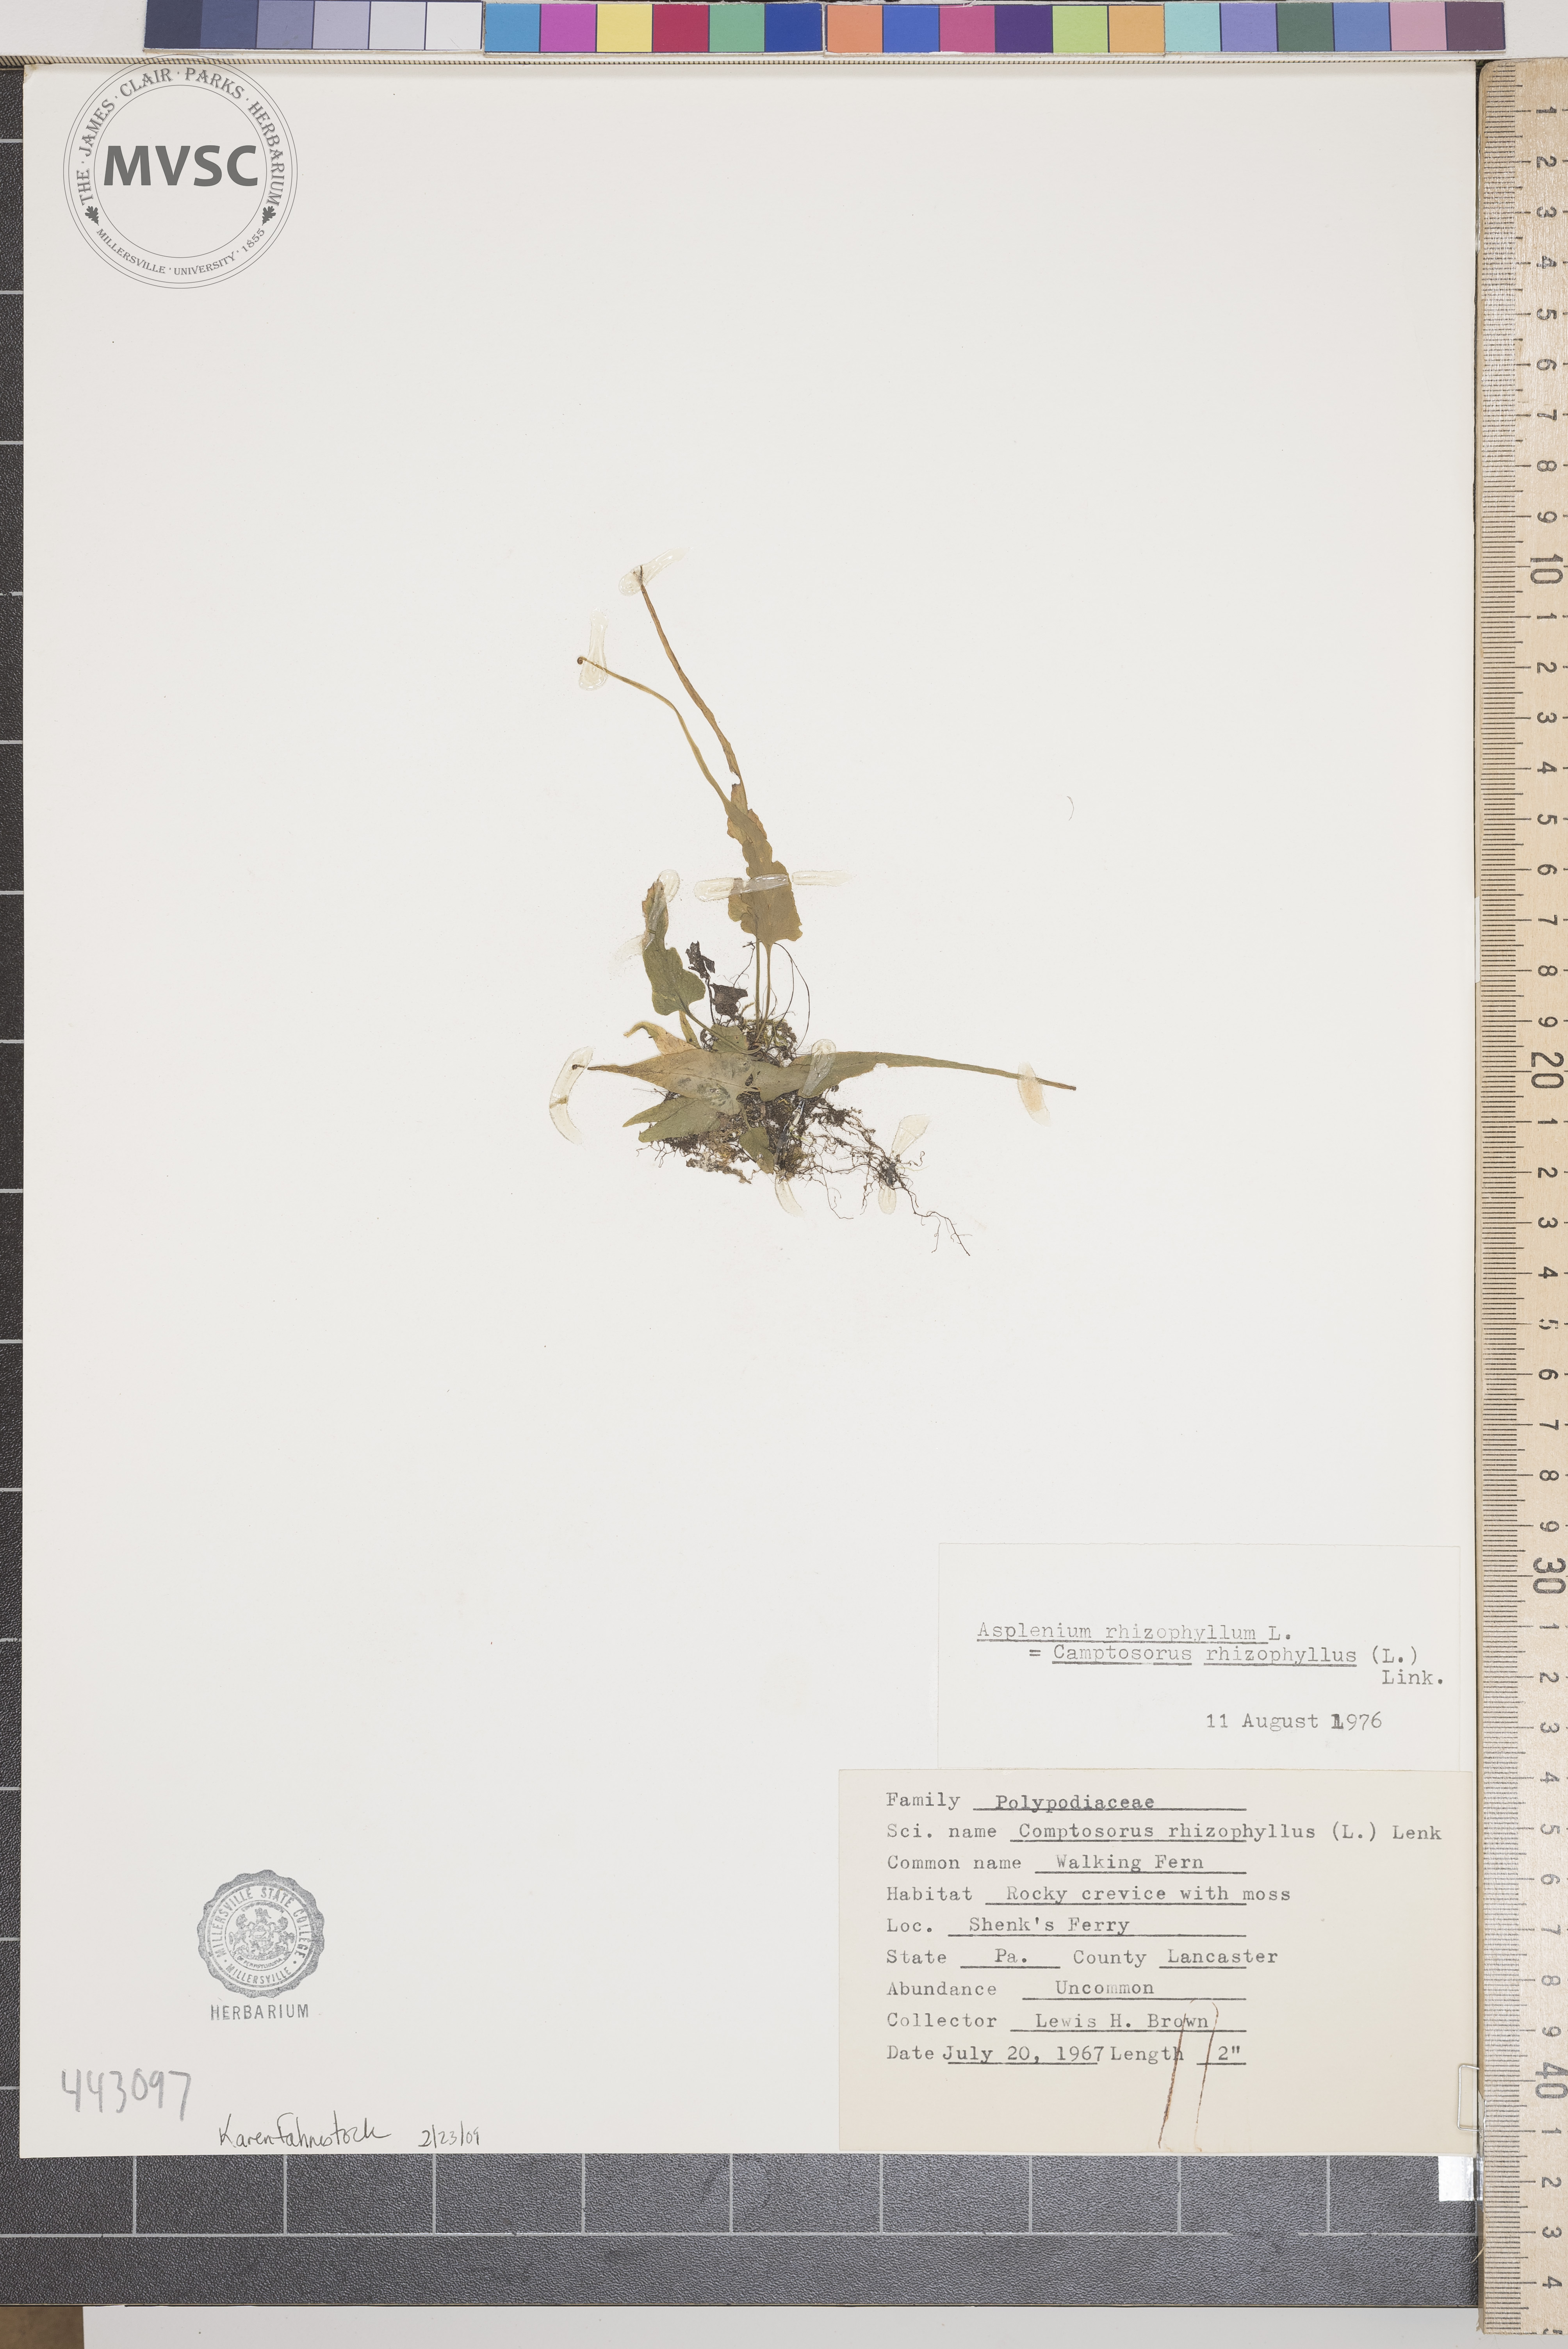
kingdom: Plantae
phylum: Tracheophyta
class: Polypodiopsida
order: Polypodiales
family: Aspleniaceae
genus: Asplenium
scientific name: Asplenium rhizophyllum
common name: Walking fern
